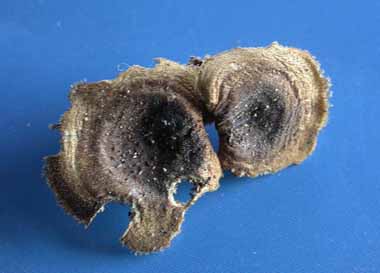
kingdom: Fungi
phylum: Basidiomycota
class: Agaricomycetes
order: Polyporales
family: Polyporaceae
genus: Lentinus
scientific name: Lentinus brumalis
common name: vinter-stilkporesvamp
